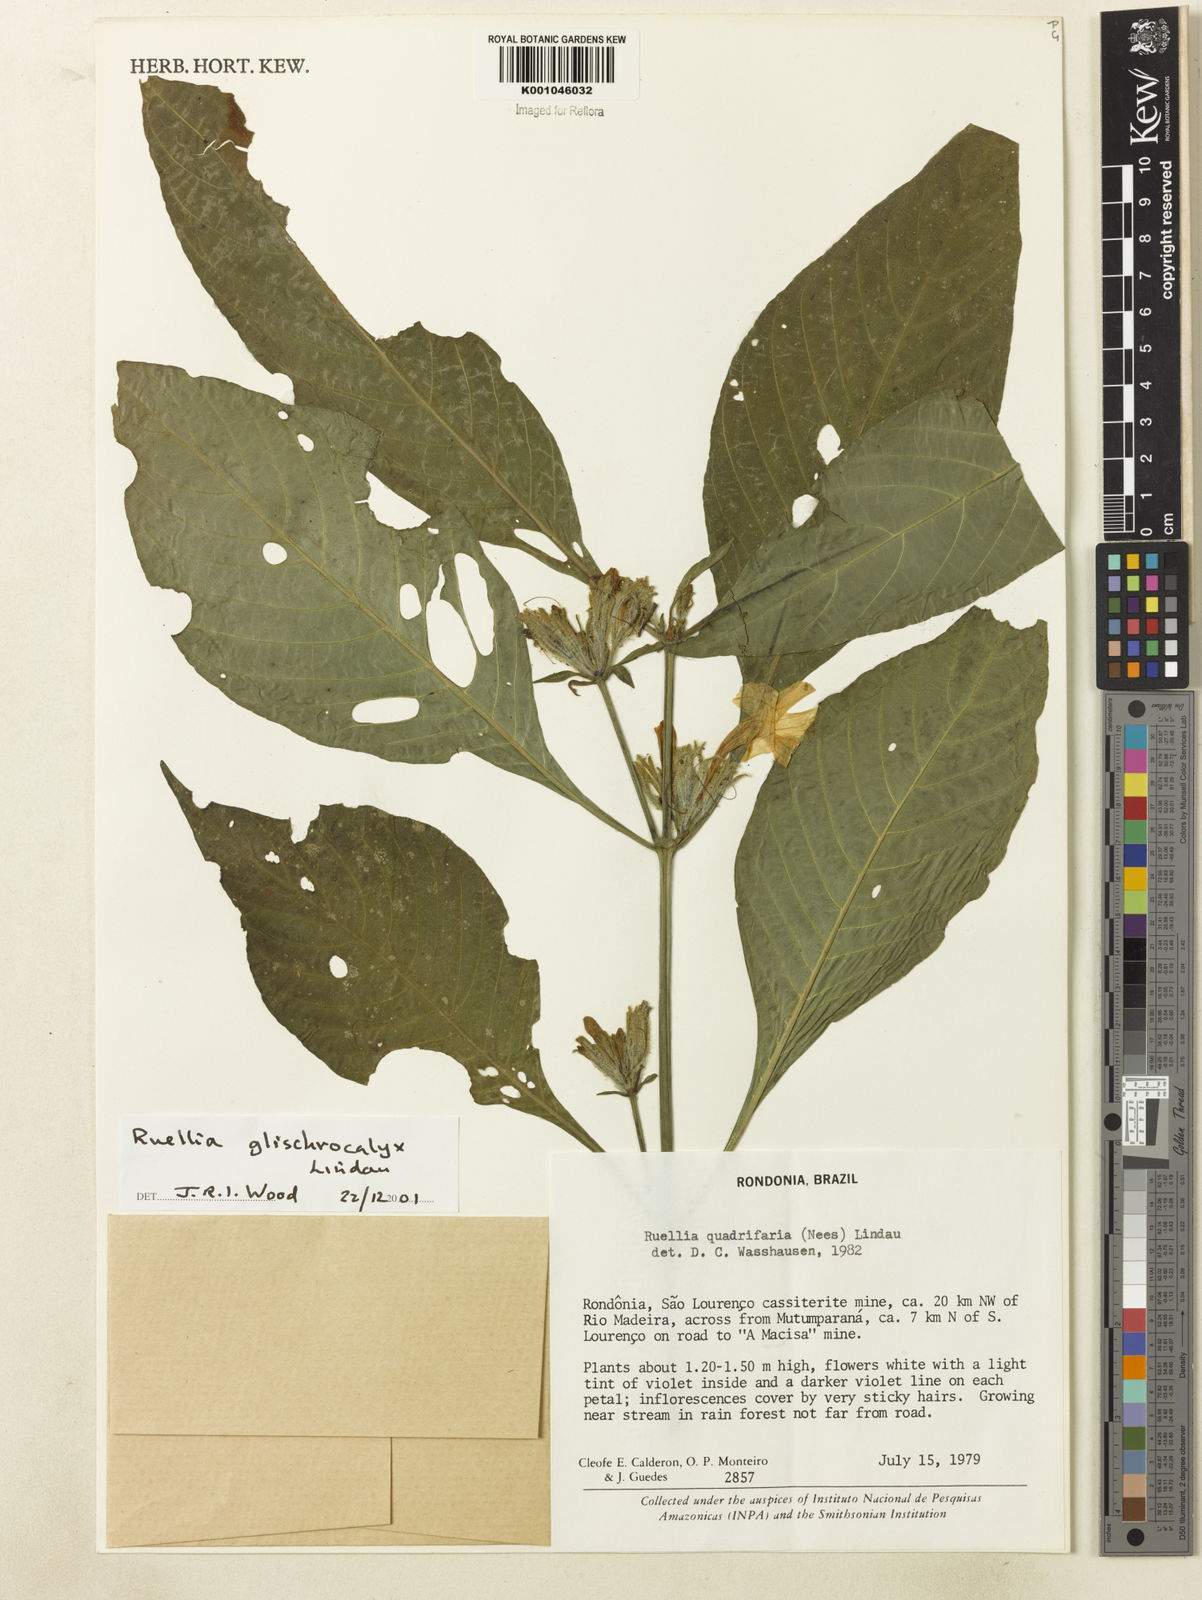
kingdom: Plantae
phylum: Tracheophyta
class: Magnoliopsida
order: Lamiales
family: Acanthaceae
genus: Ruellia
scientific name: Ruellia glischrocalyx
